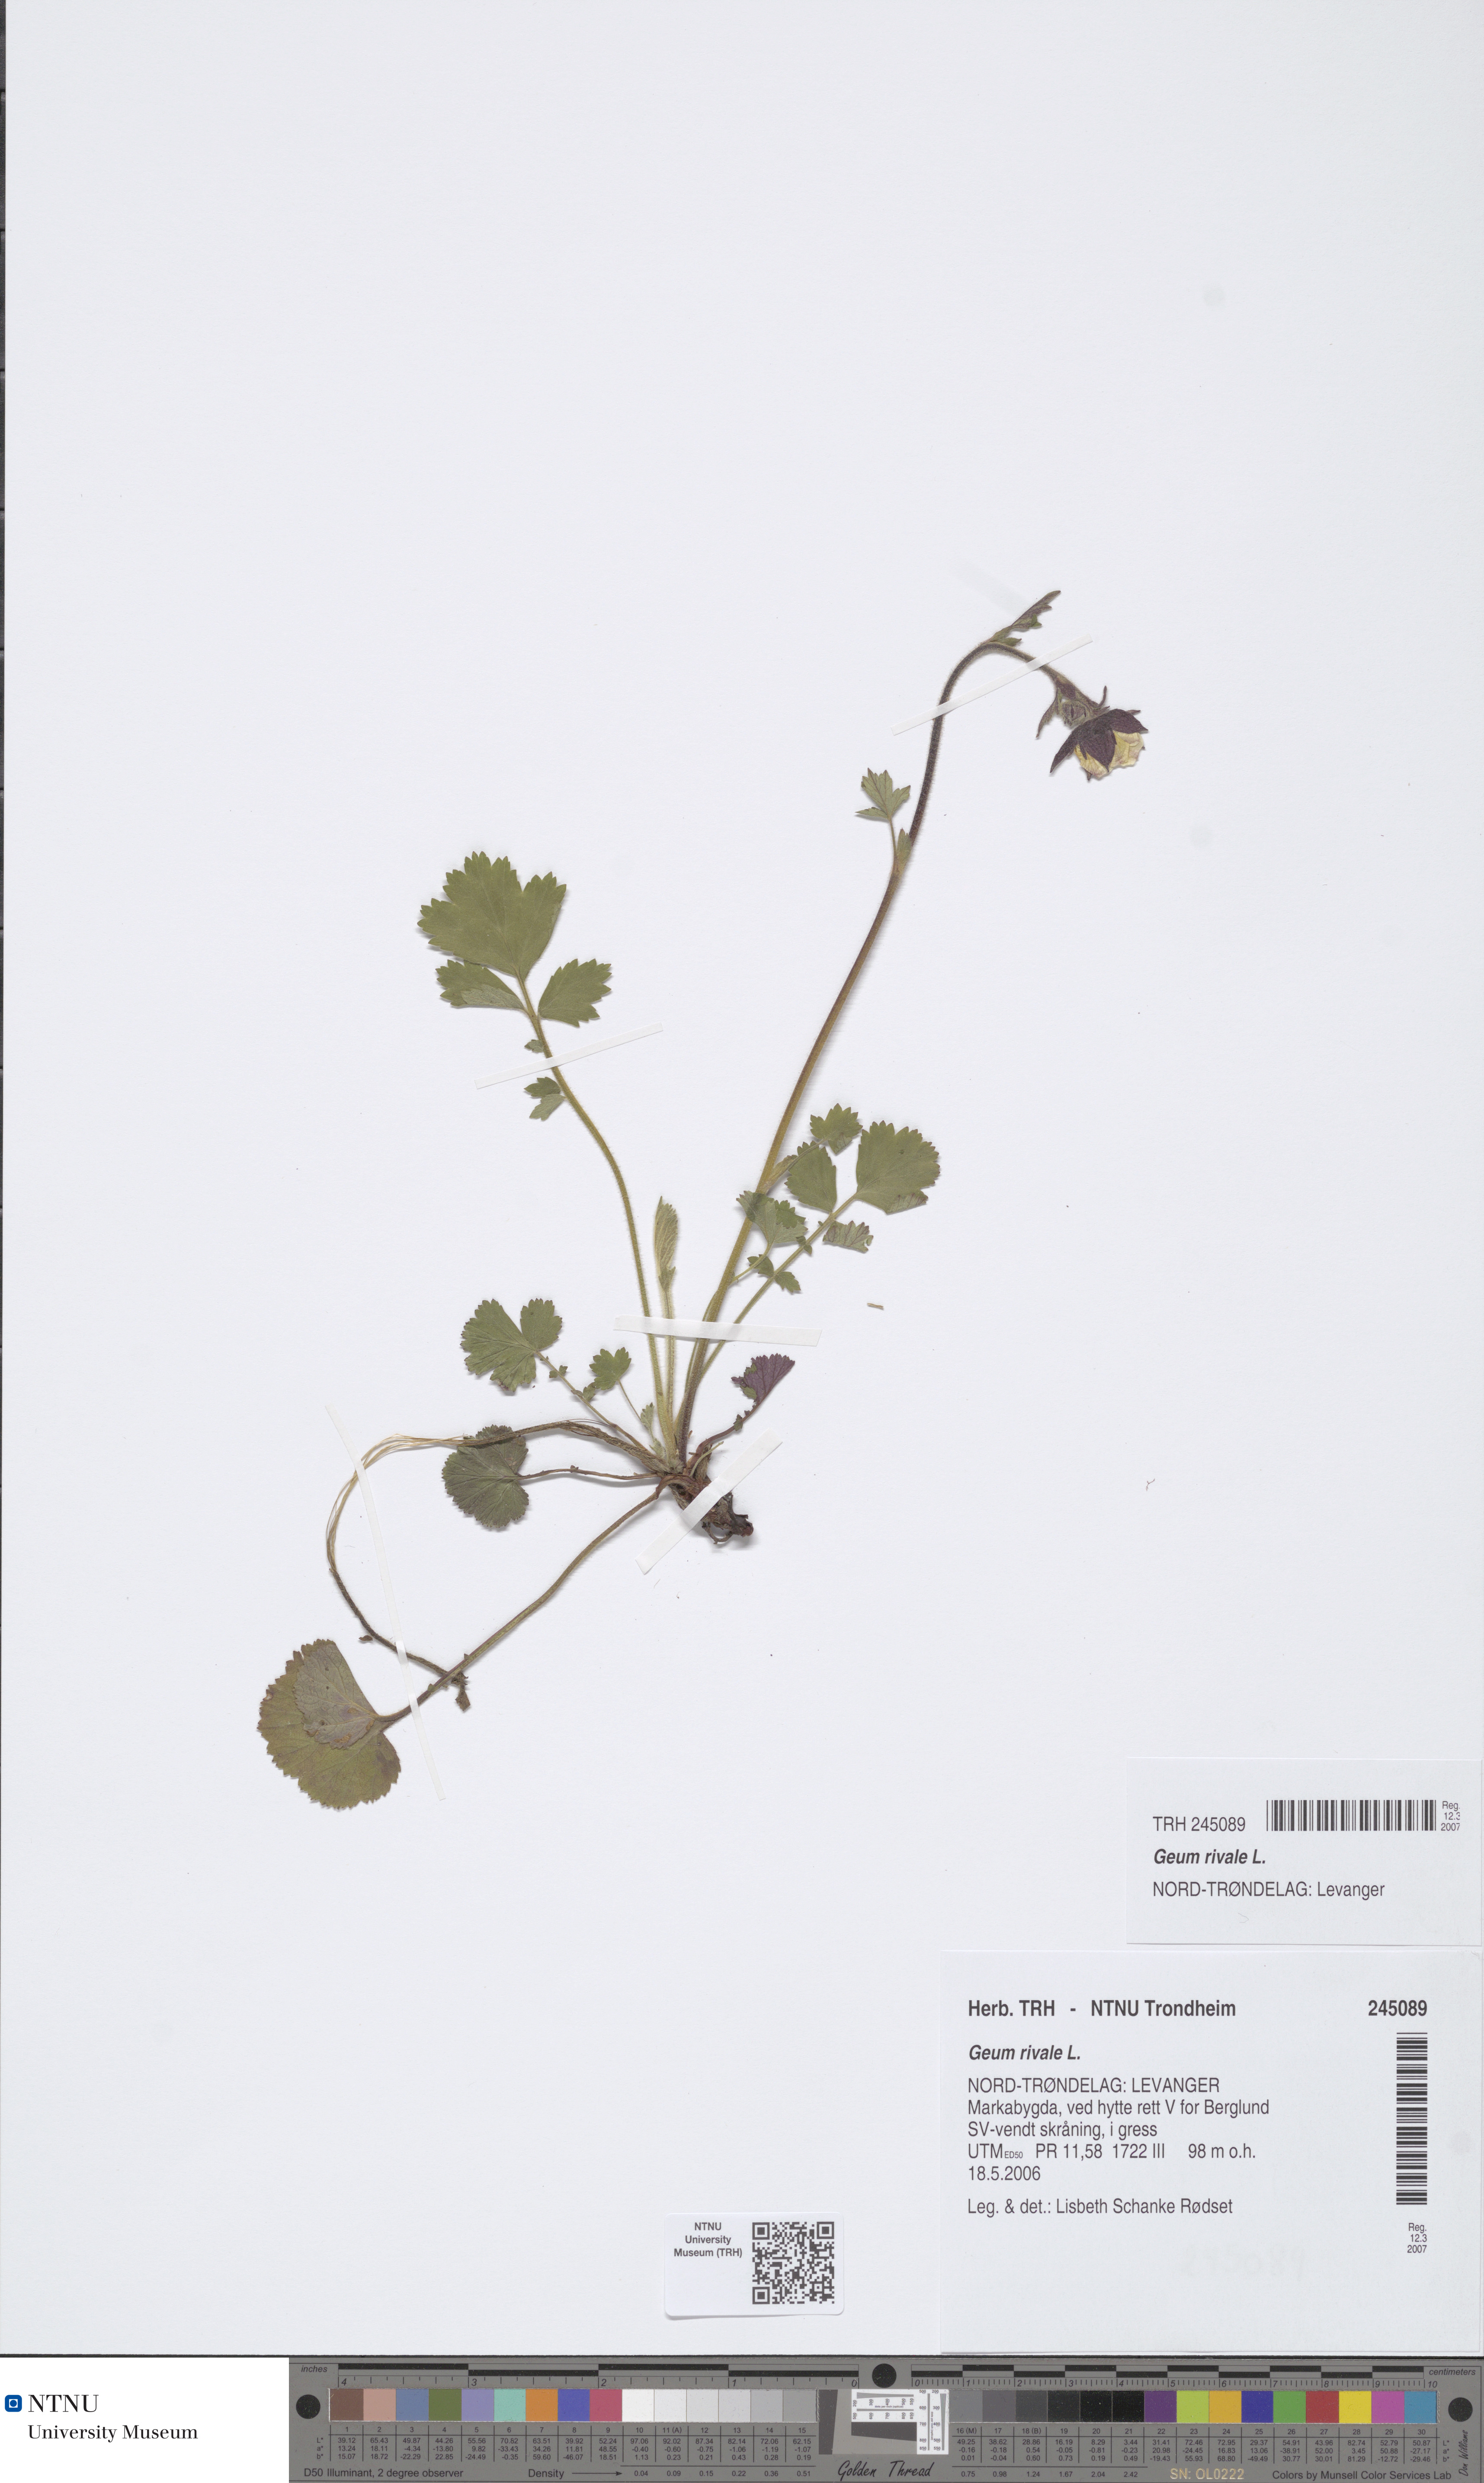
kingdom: Plantae
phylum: Tracheophyta
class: Magnoliopsida
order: Rosales
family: Rosaceae
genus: Geum
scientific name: Geum rivale
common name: Water avens
